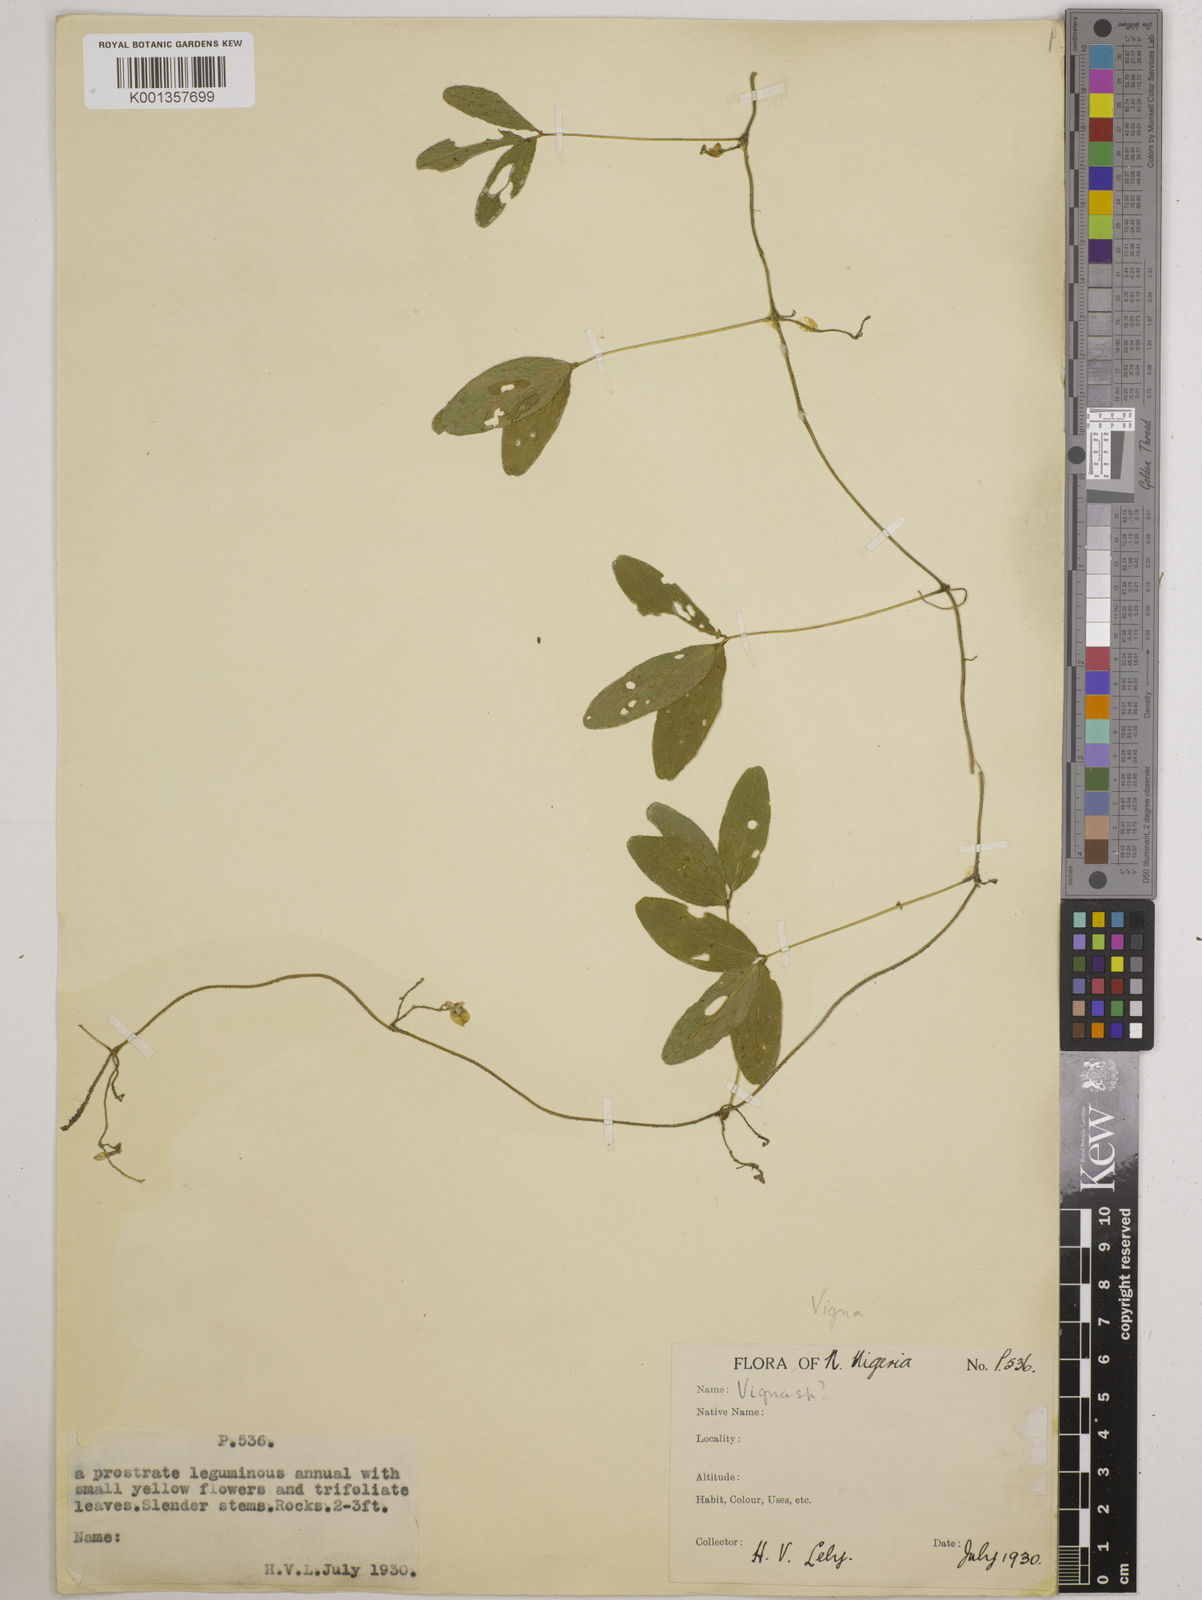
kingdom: Plantae
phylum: Tracheophyta
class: Magnoliopsida
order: Fabales
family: Fabaceae
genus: Vigna
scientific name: Vigna
